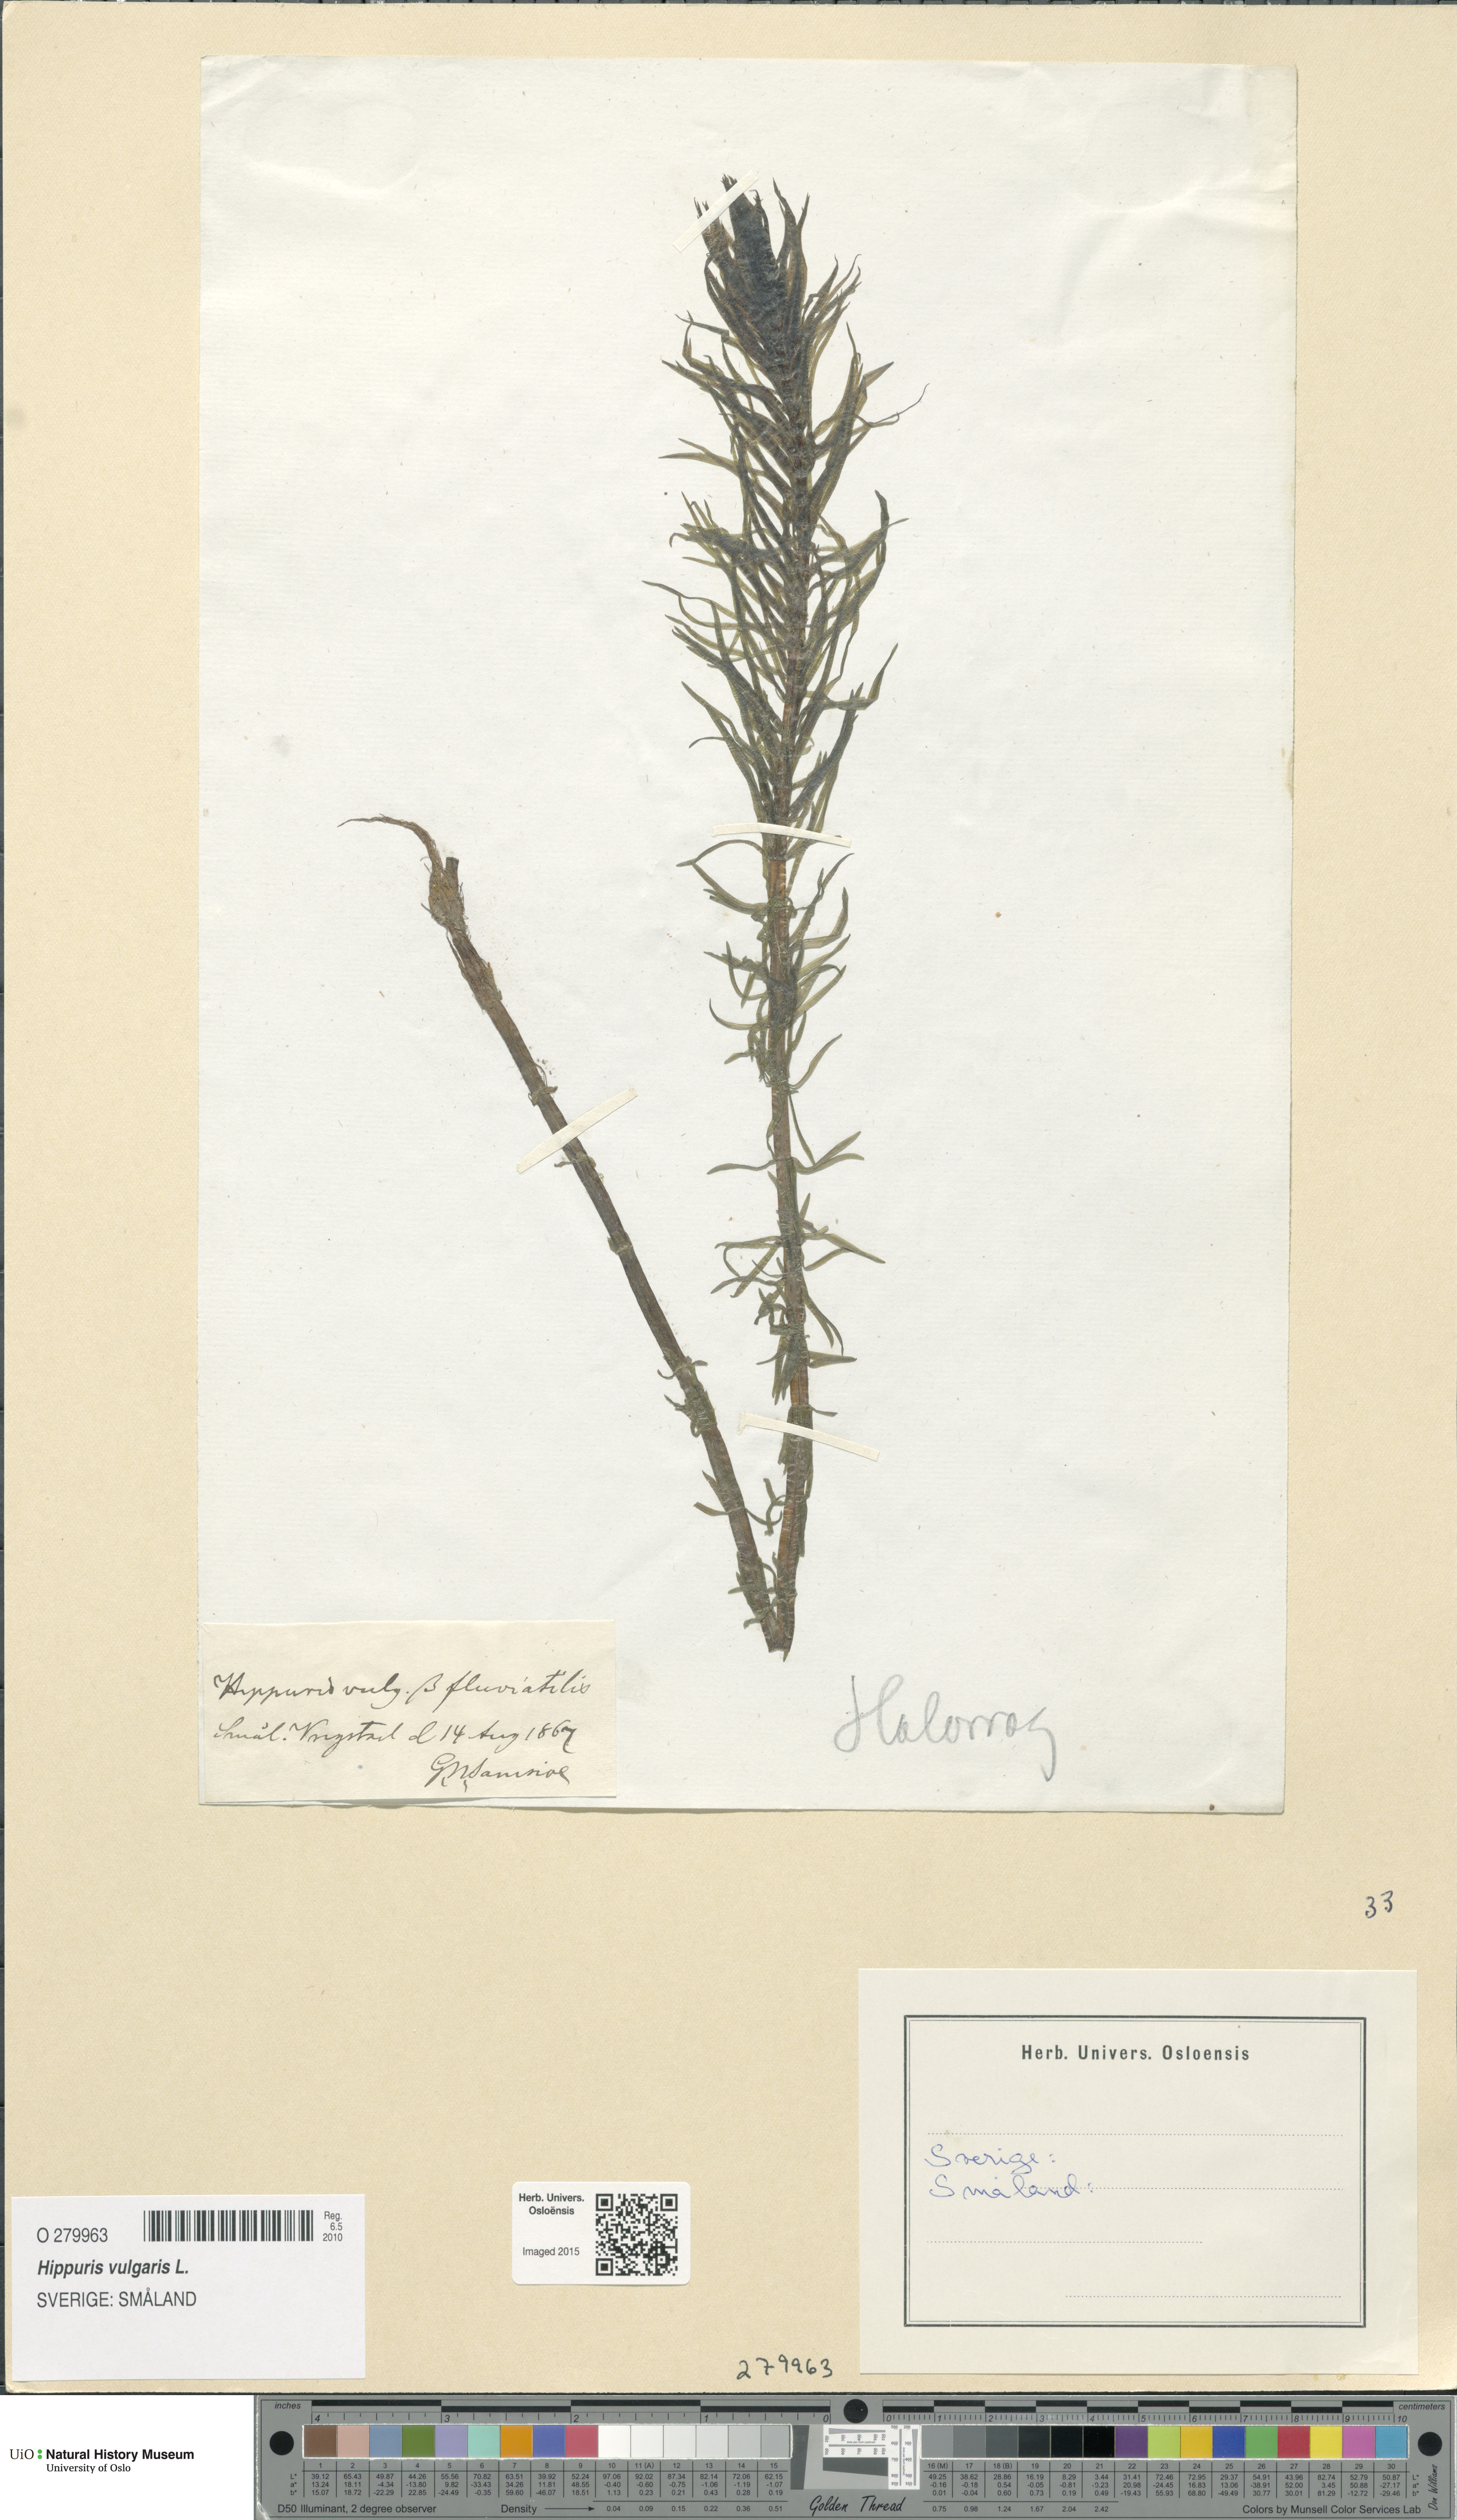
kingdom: Plantae
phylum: Tracheophyta
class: Magnoliopsida
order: Lamiales
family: Plantaginaceae
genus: Hippuris
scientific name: Hippuris vulgaris
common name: Mare's-tail
